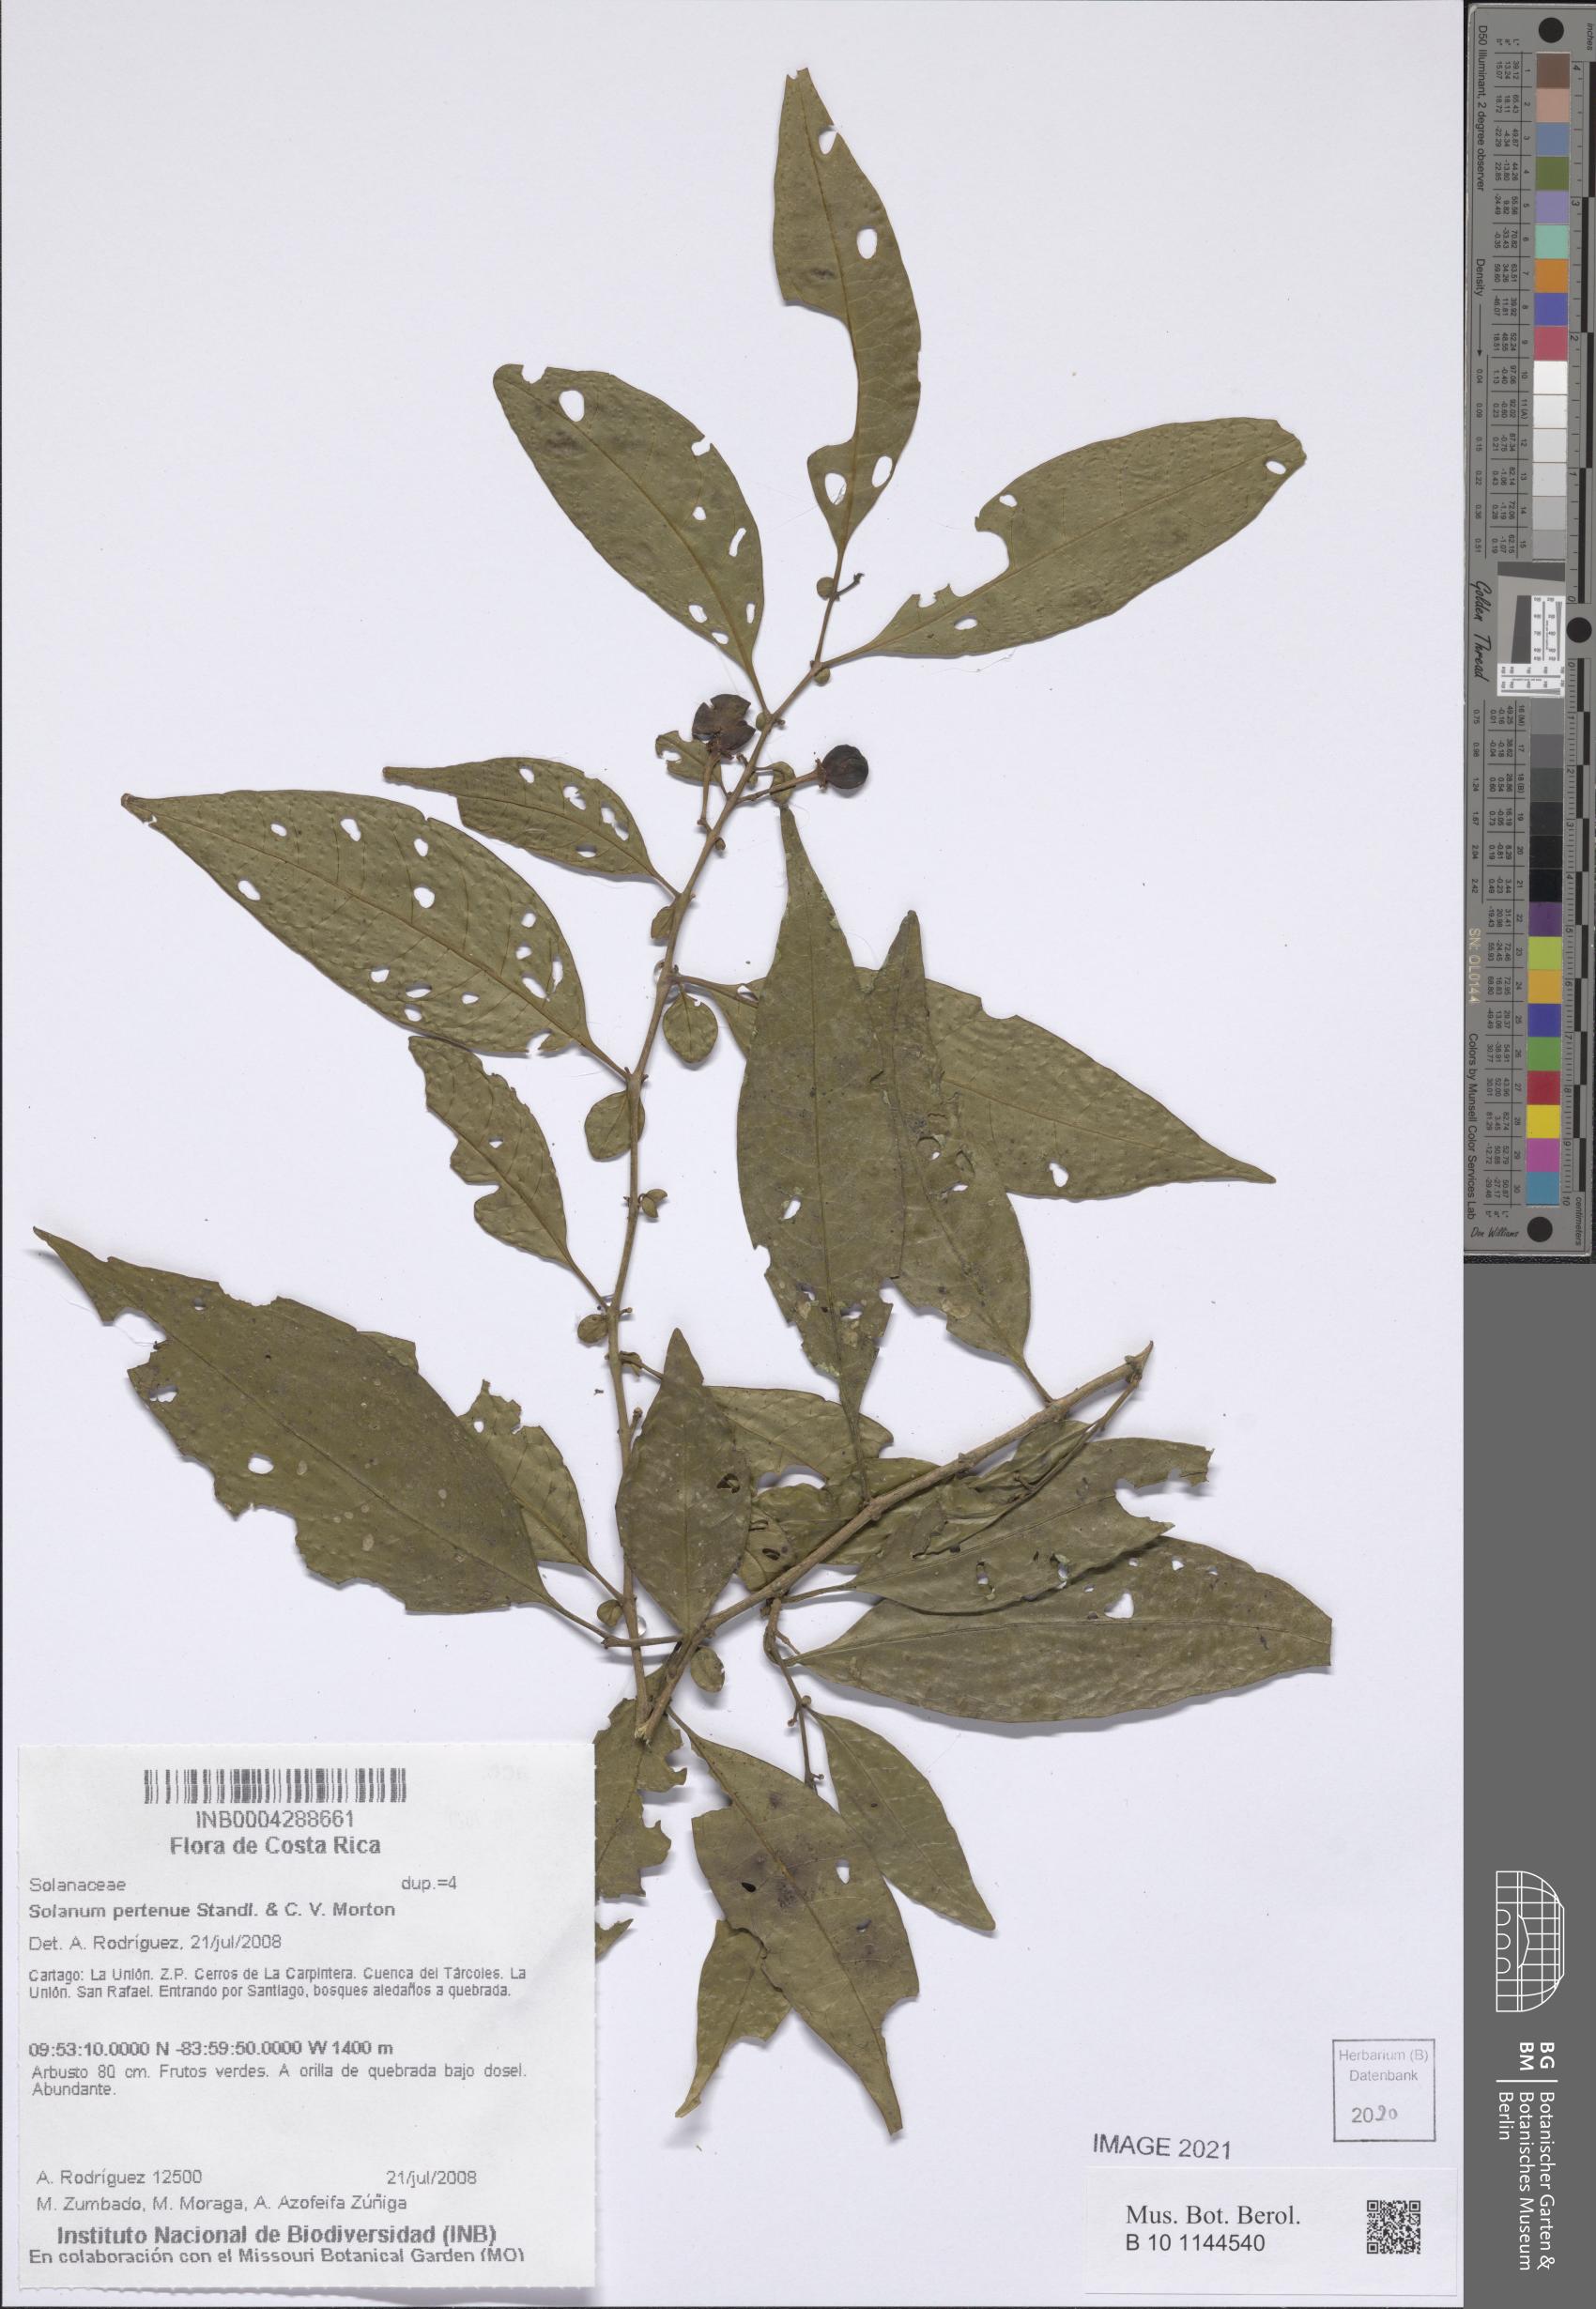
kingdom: Plantae
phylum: Tracheophyta
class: Magnoliopsida
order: Solanales
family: Solanaceae
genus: Solanum
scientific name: Solanum pertenue
